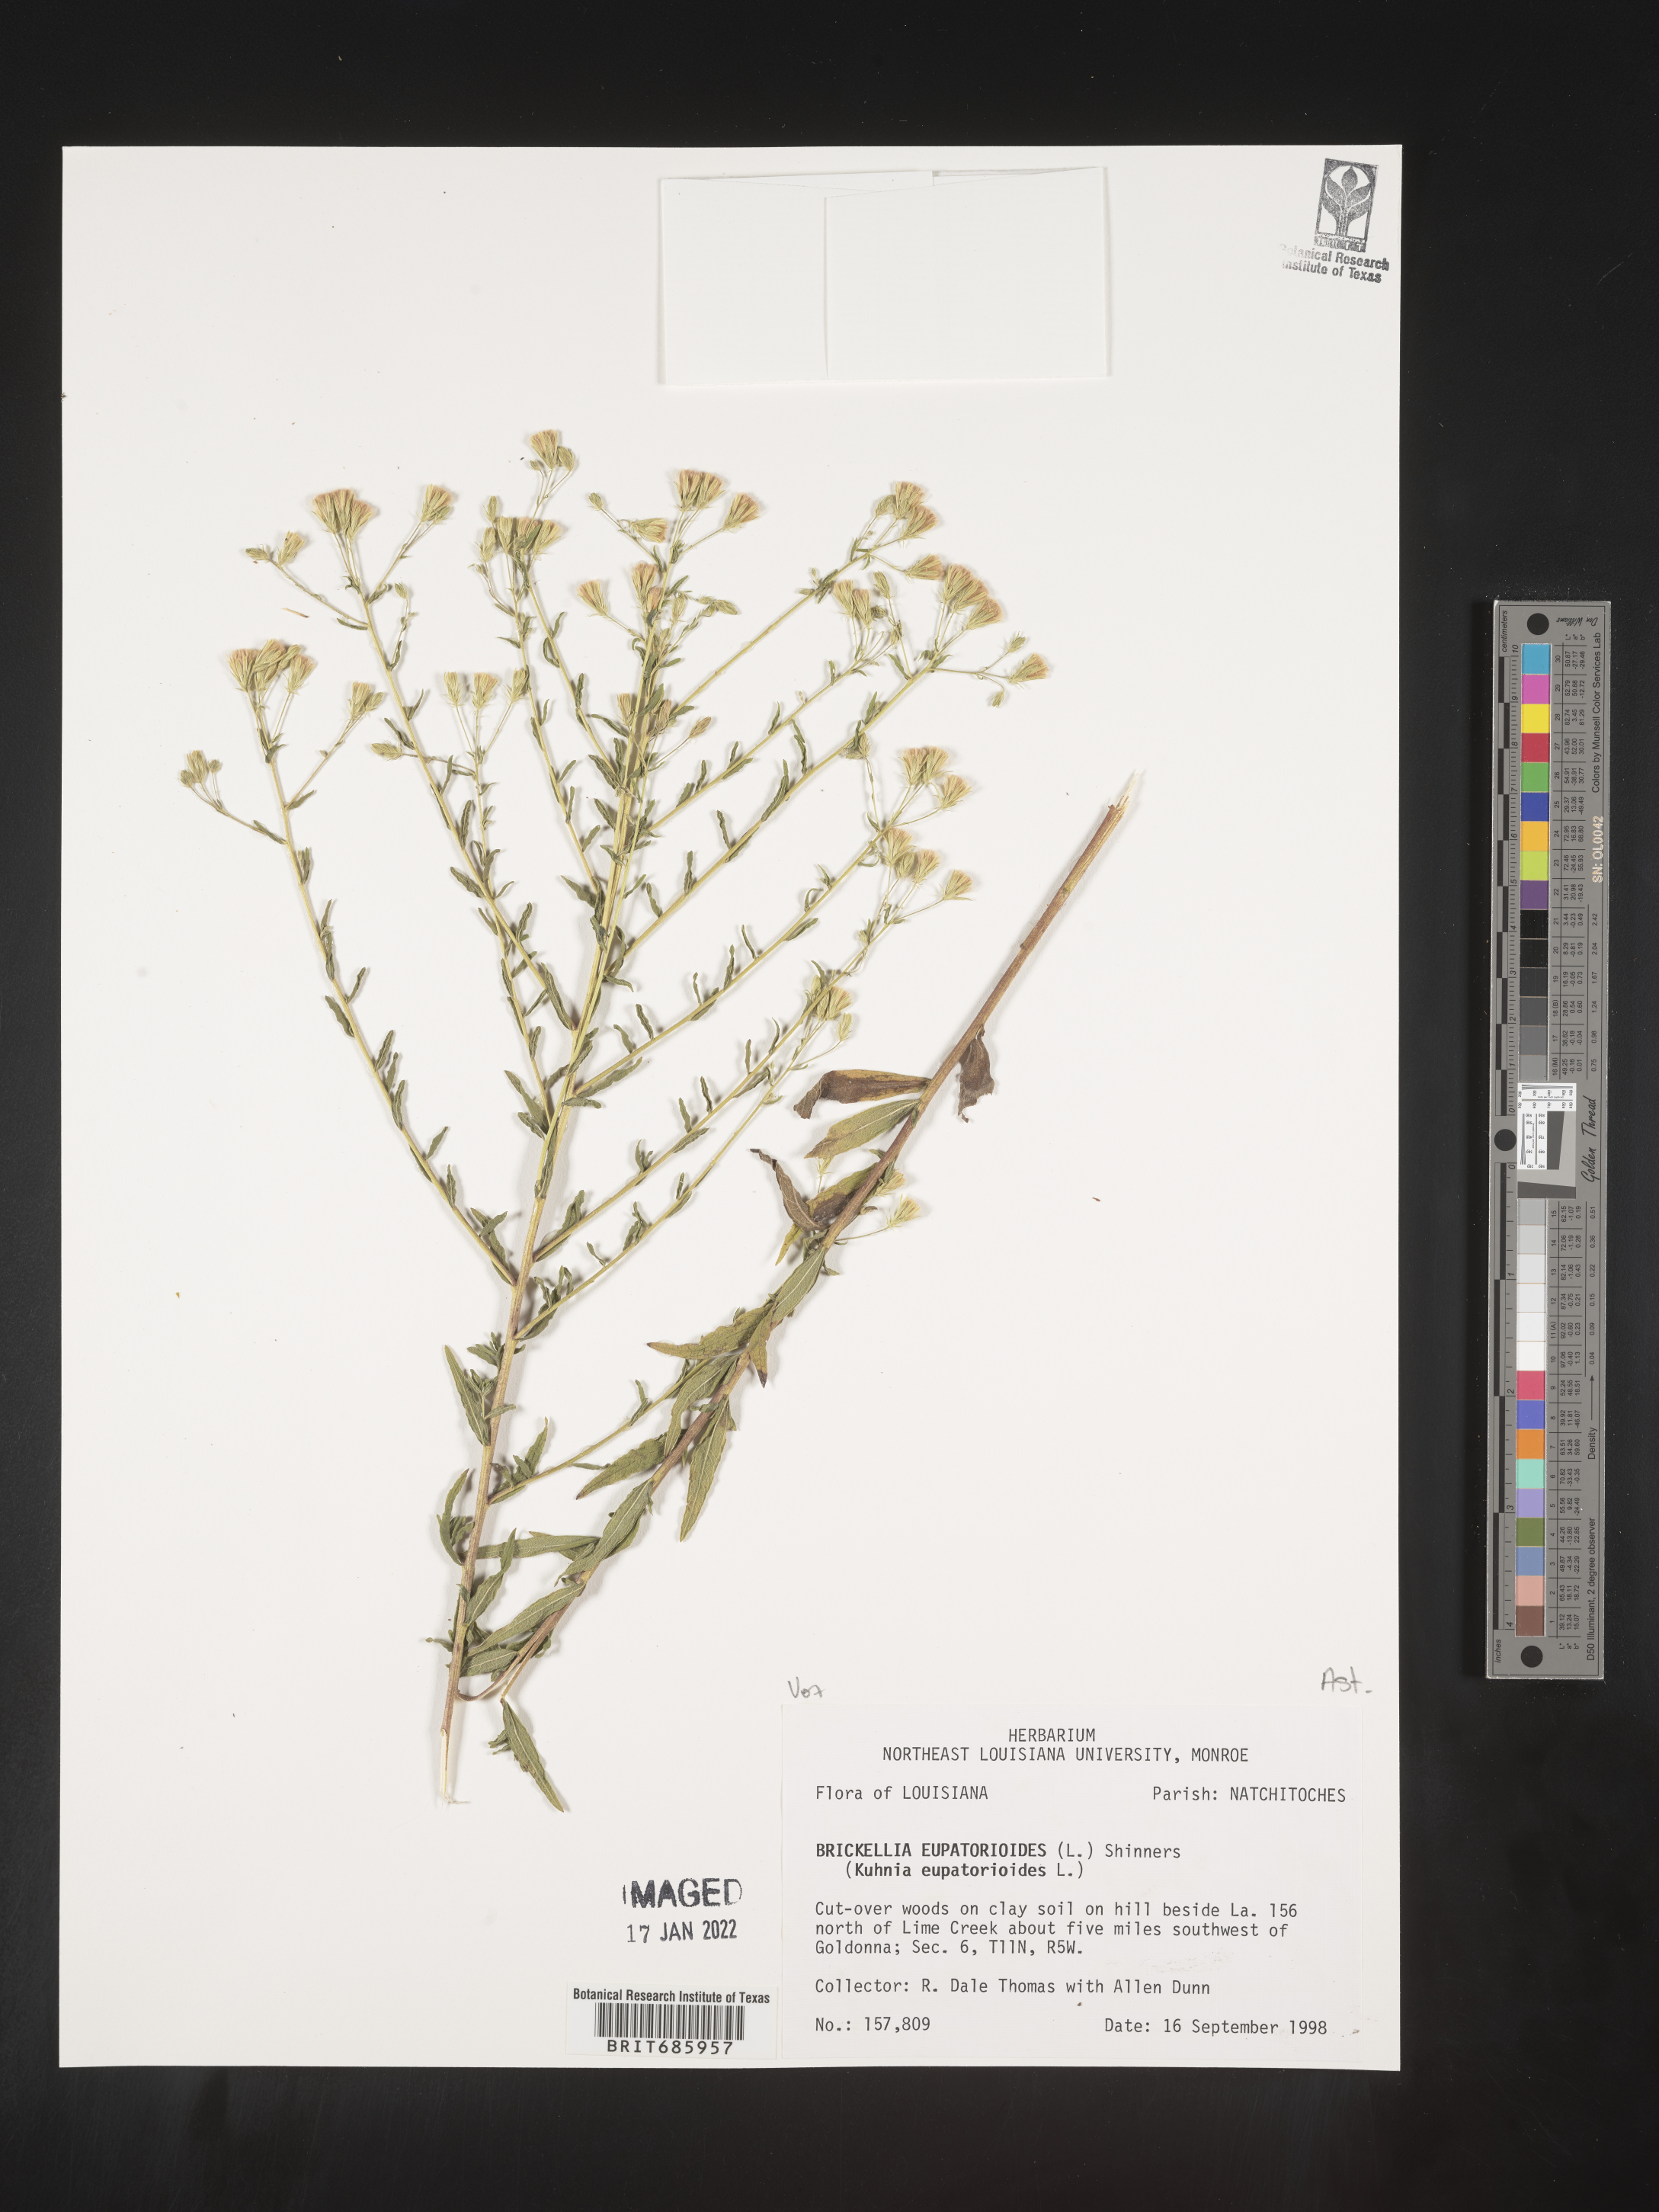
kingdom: Plantae
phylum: Tracheophyta
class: Magnoliopsida
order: Asterales
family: Asteraceae
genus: Brickellia
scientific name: Brickellia eupatorioides
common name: False boneset
